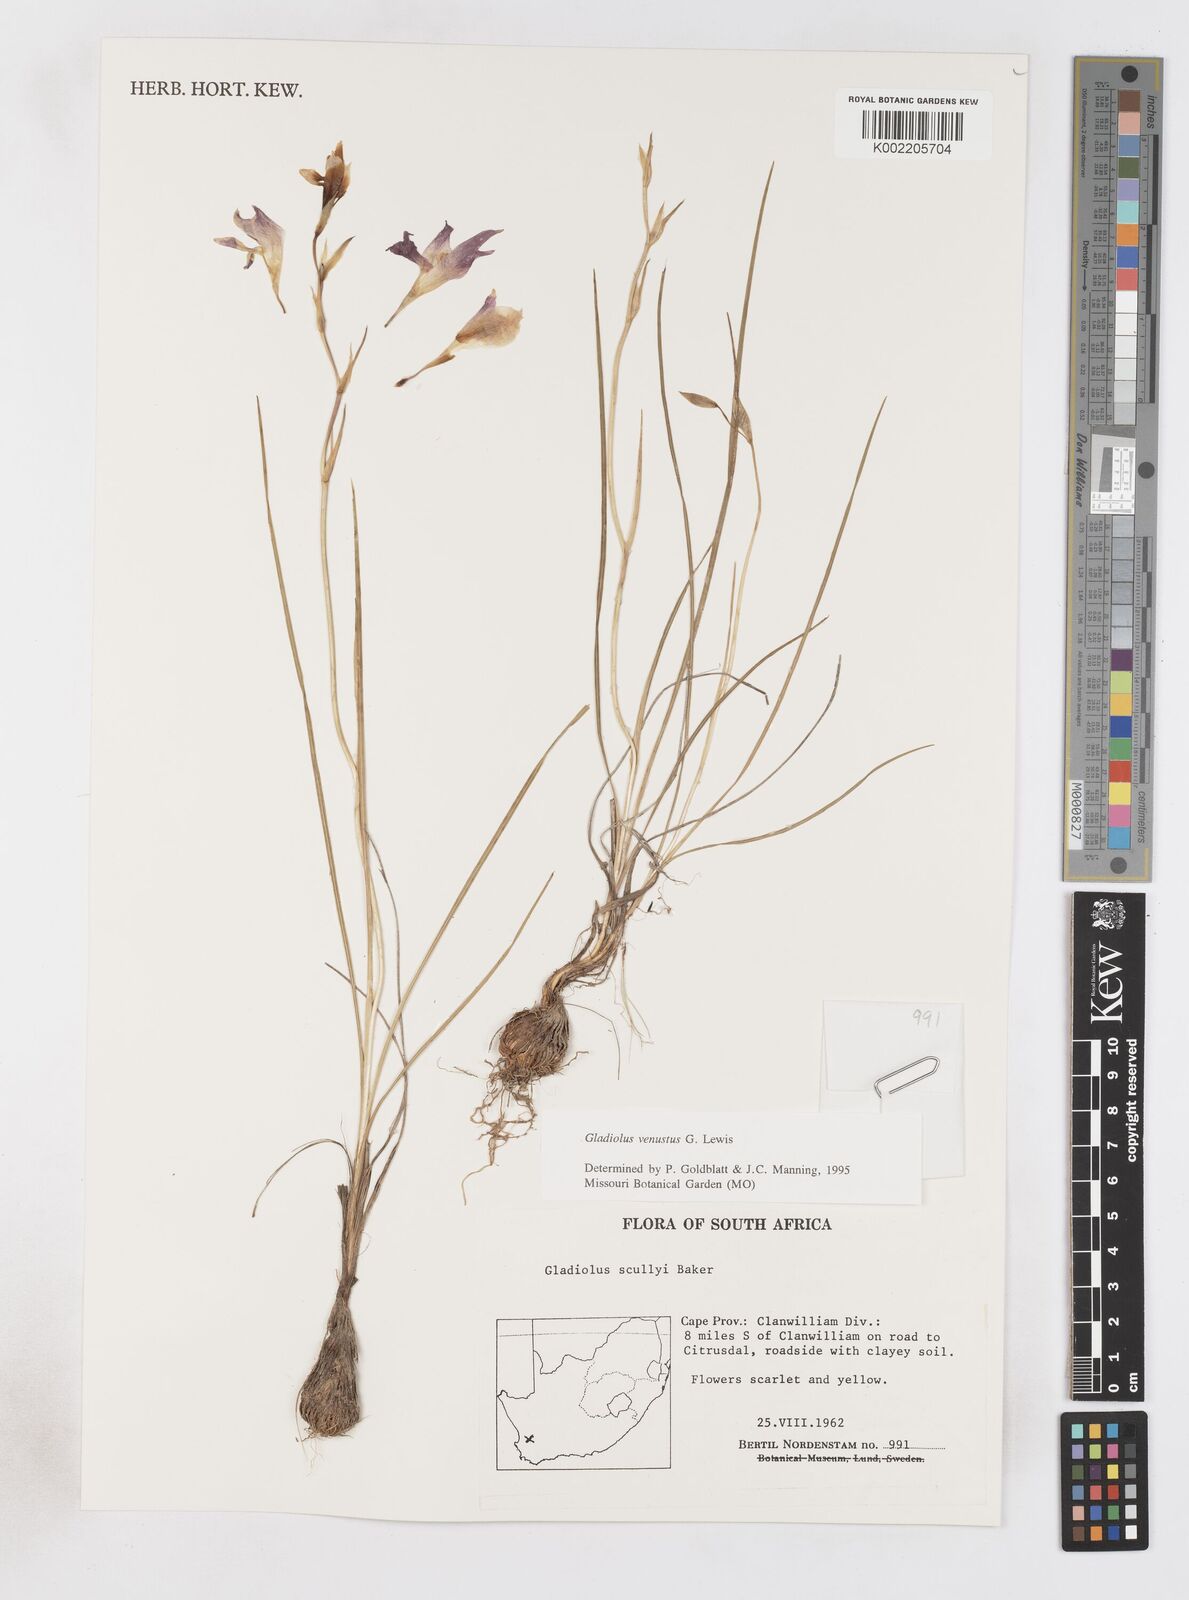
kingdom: Plantae
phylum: Tracheophyta
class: Liliopsida
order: Asparagales
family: Iridaceae
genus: Gladiolus
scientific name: Gladiolus densiflorus
